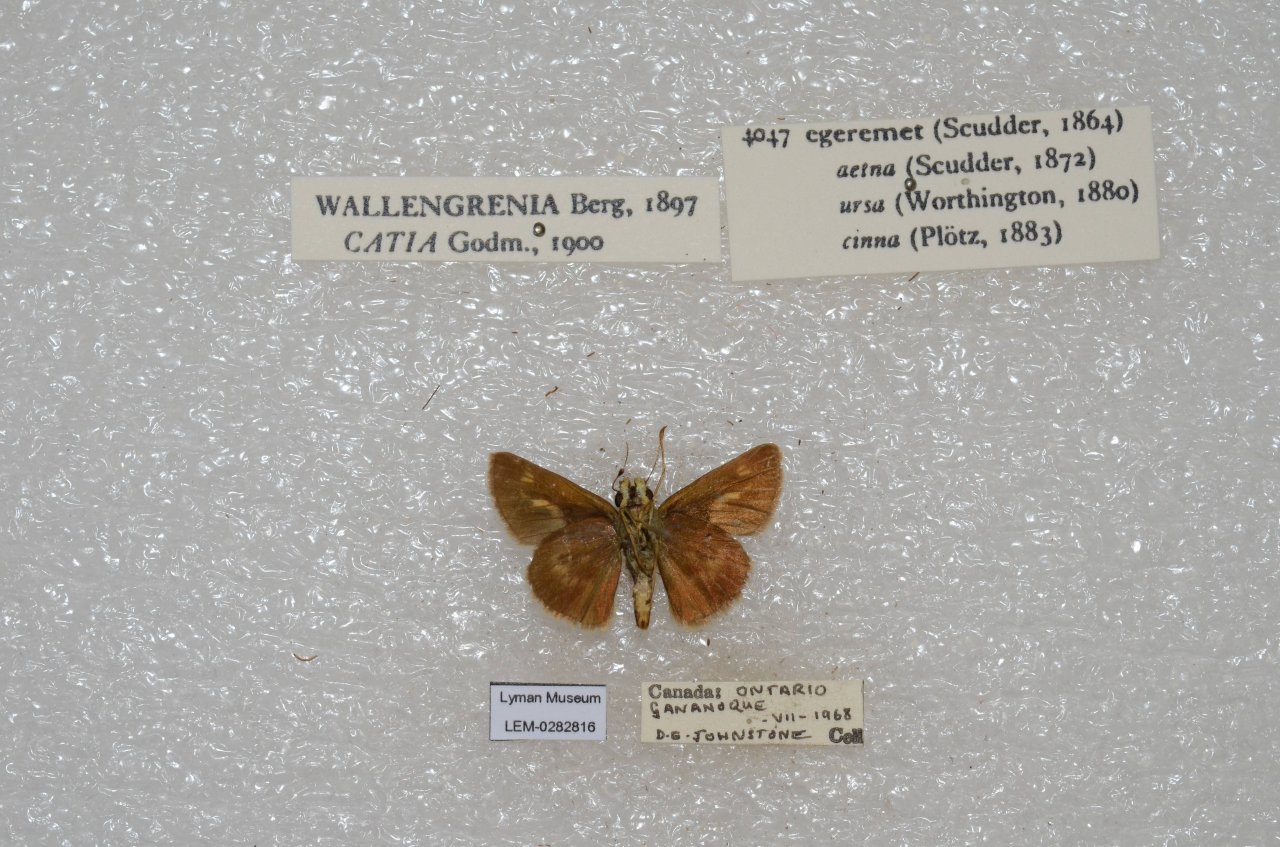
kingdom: Animalia
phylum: Arthropoda
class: Insecta
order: Lepidoptera
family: Hesperiidae
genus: Polites
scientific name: Polites egeremet
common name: Northern Broken-Dash
